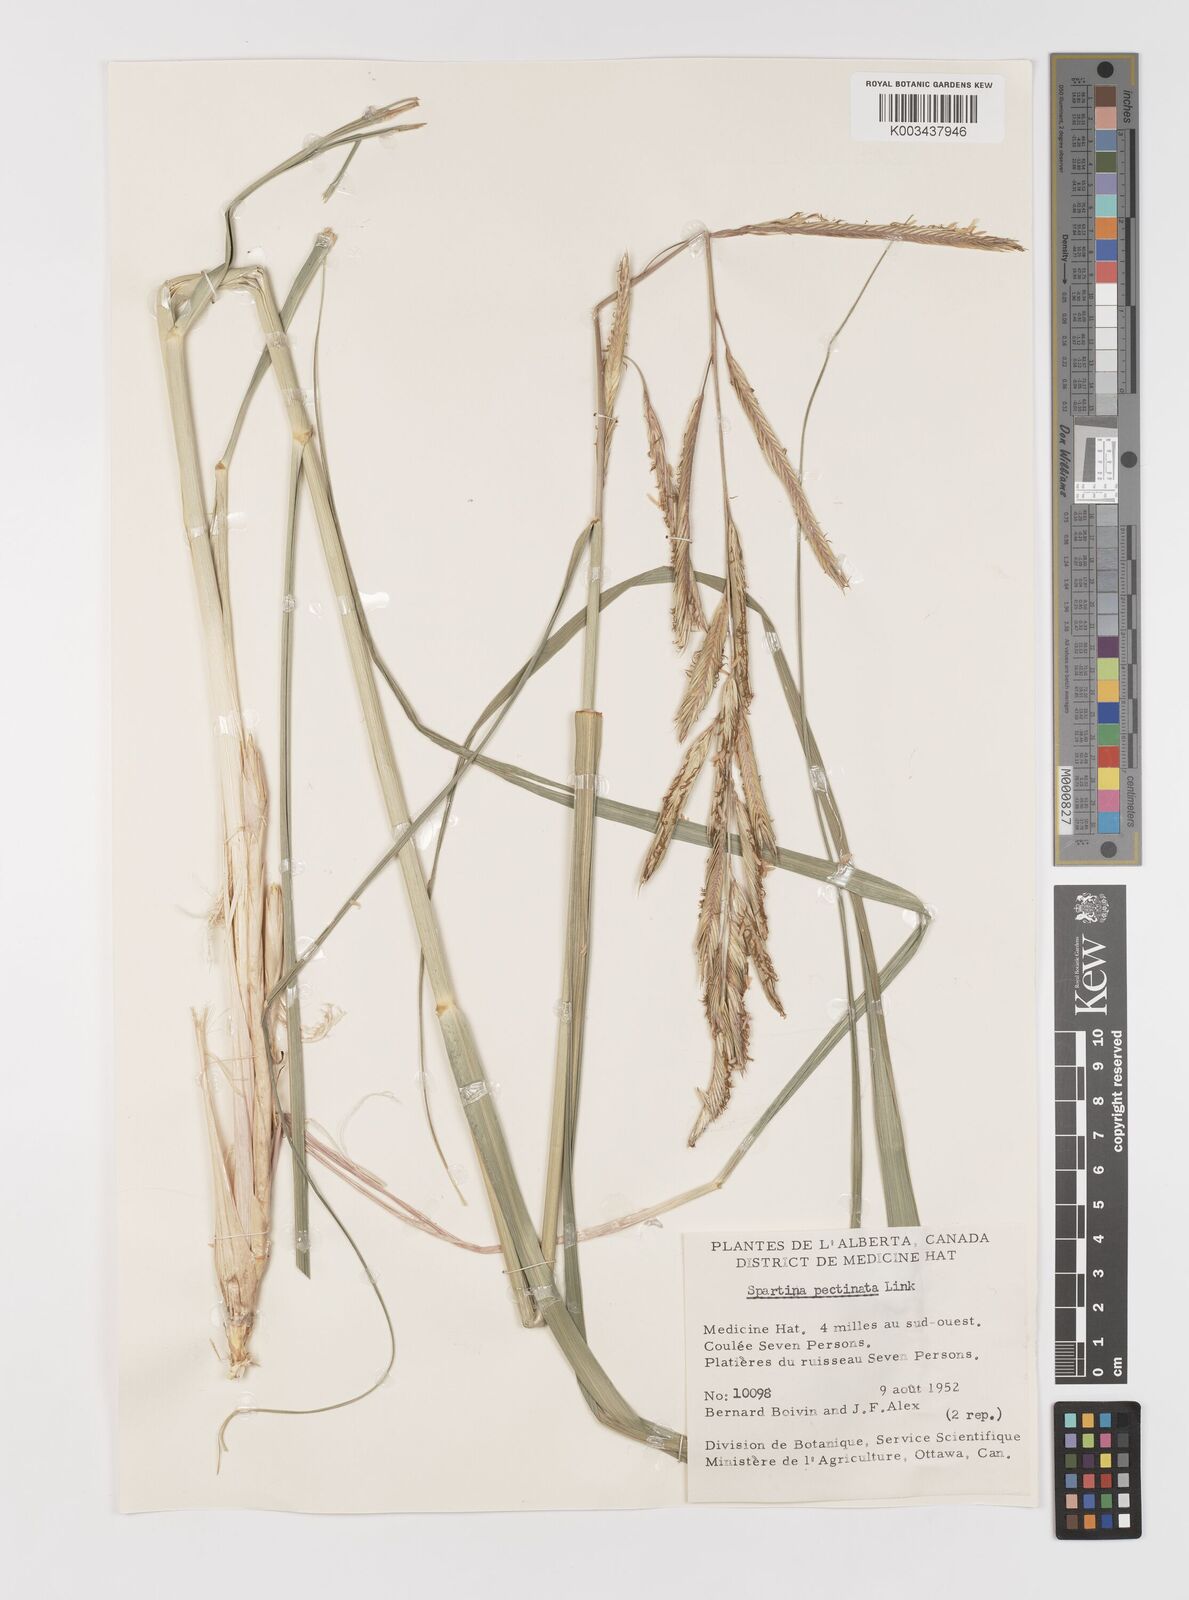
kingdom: Plantae
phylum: Tracheophyta
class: Liliopsida
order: Poales
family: Poaceae
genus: Sporobolus
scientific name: Sporobolus michauxianus
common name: Freshwater cordgrass
